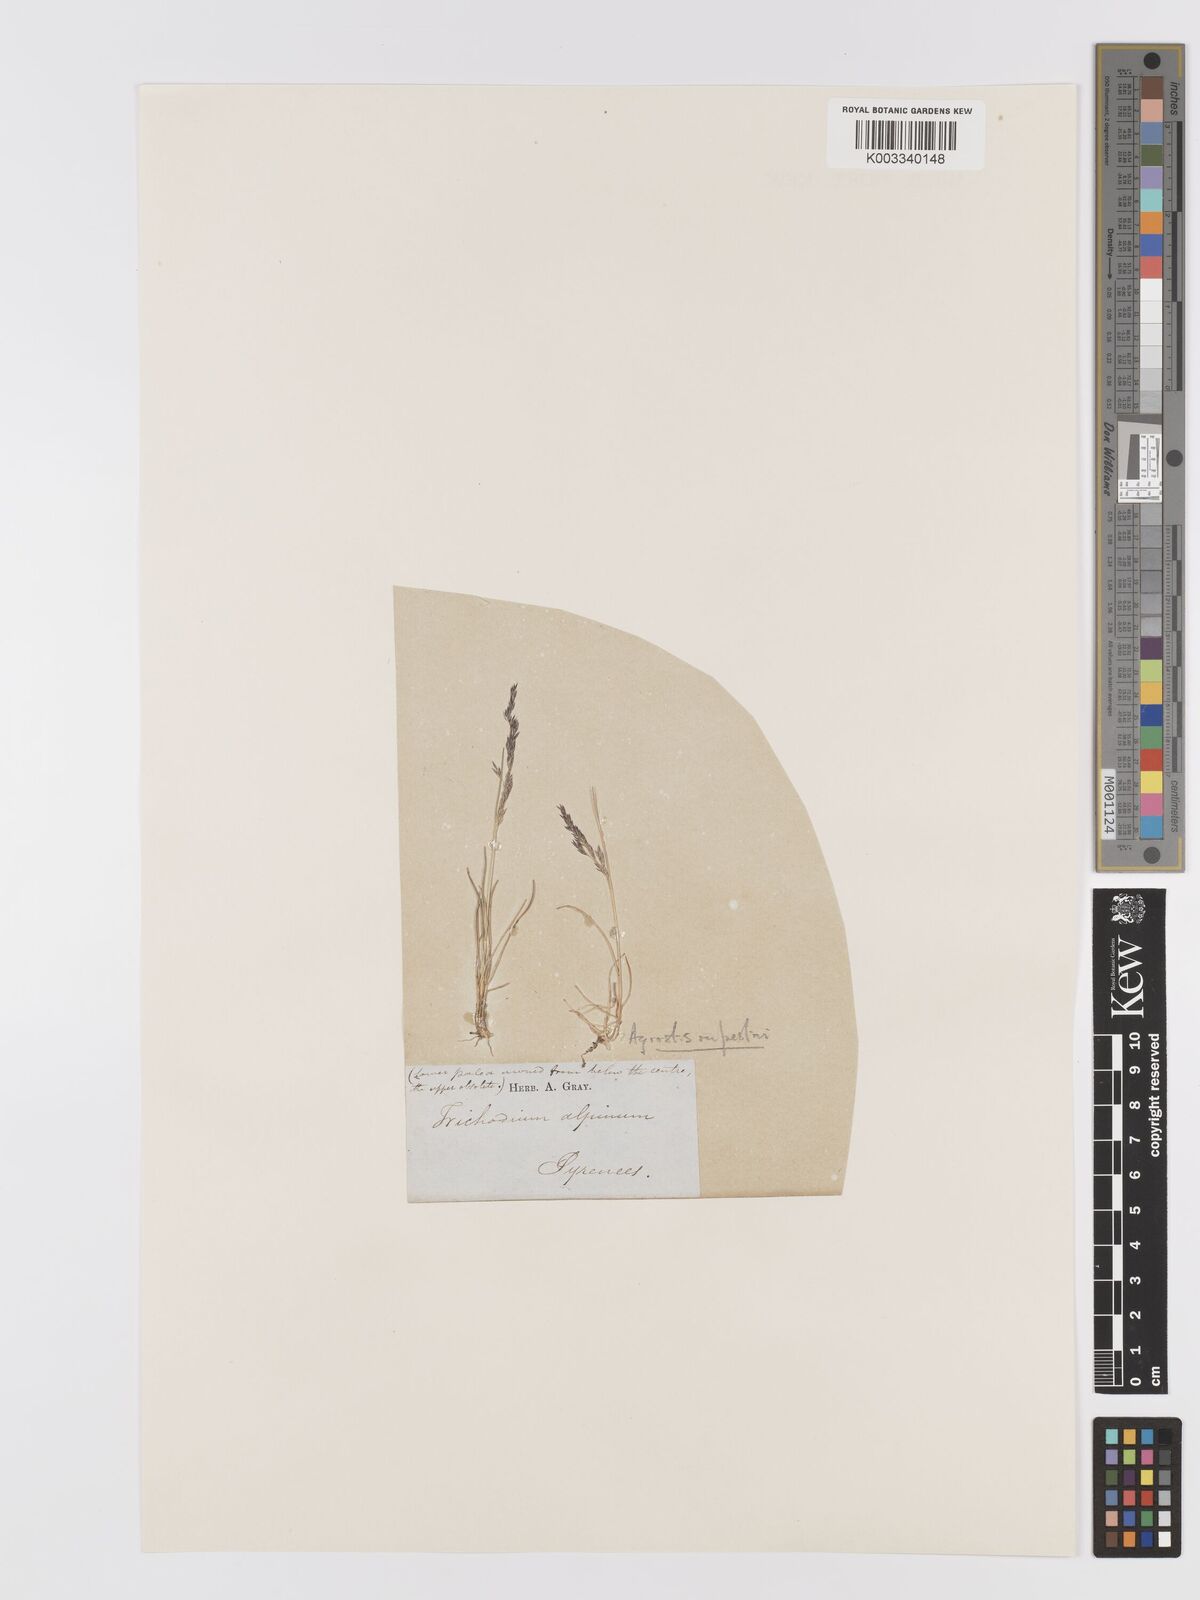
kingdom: Plantae
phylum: Tracheophyta
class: Liliopsida
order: Poales
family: Poaceae
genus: Agrostis
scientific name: Agrostis rupestris
